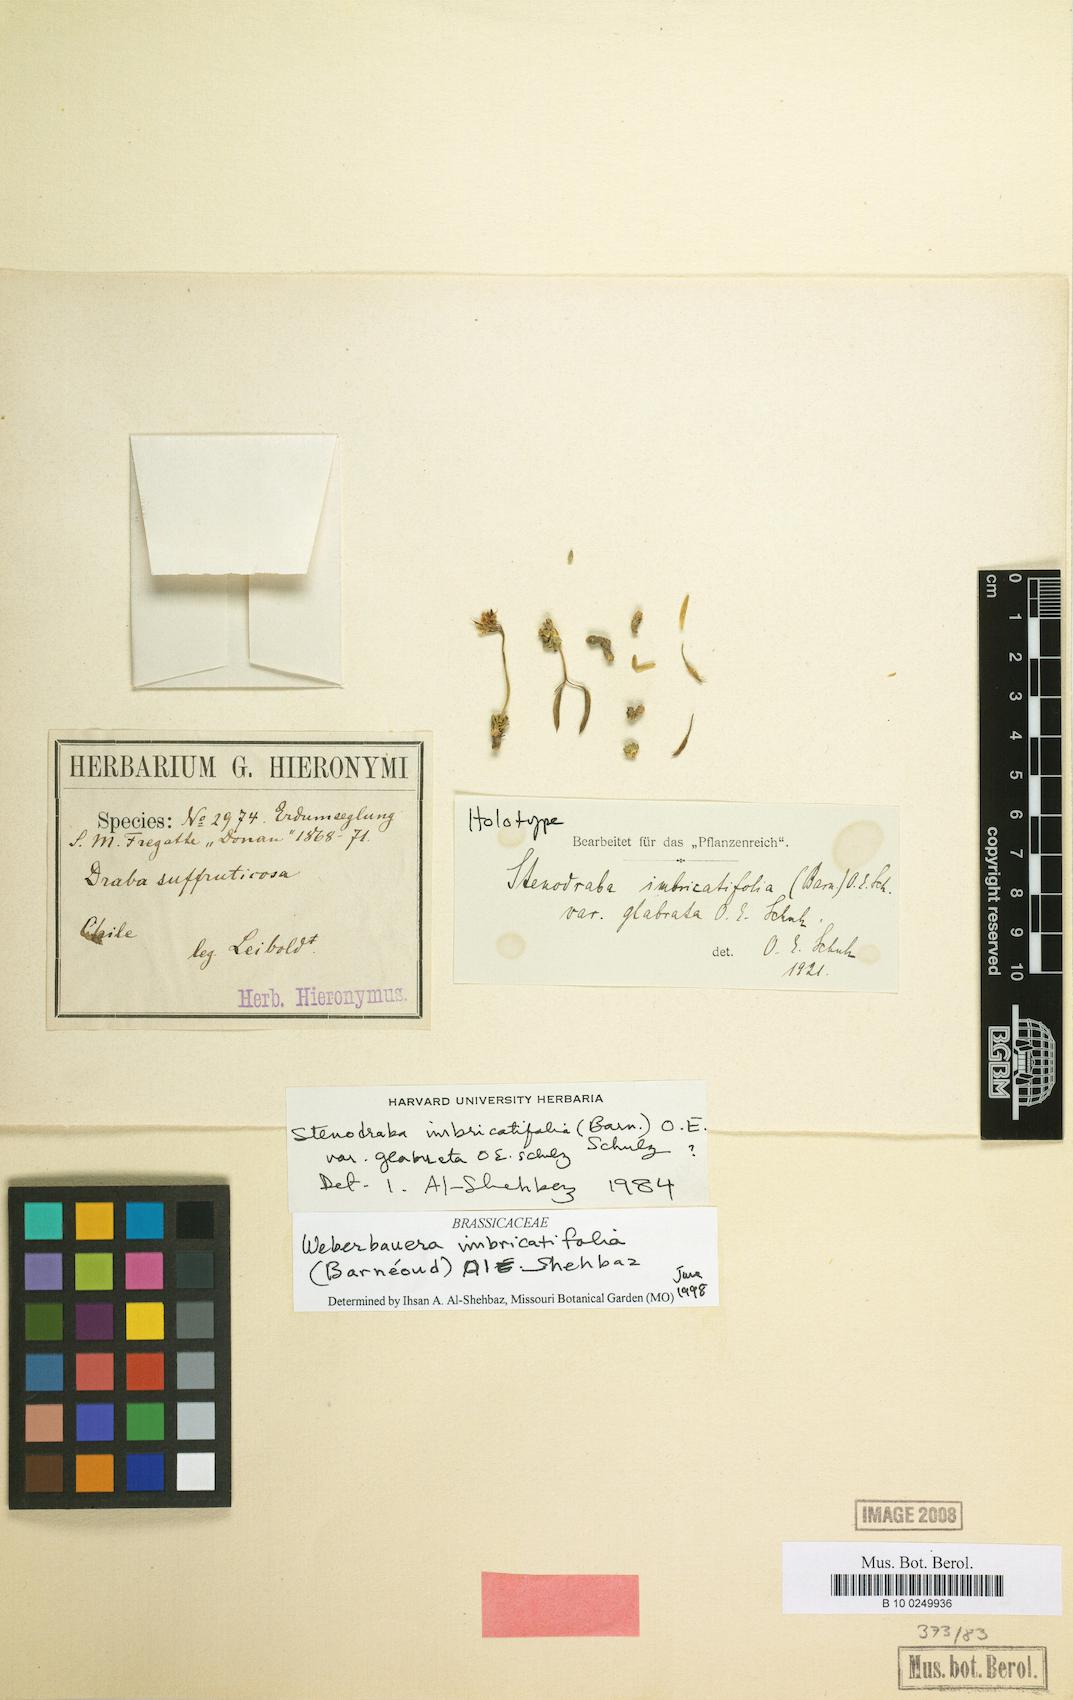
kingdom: Plantae
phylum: Tracheophyta
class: Magnoliopsida
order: Brassicales
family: Brassicaceae
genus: Stenodraba
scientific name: Stenodraba imbricatifolia
